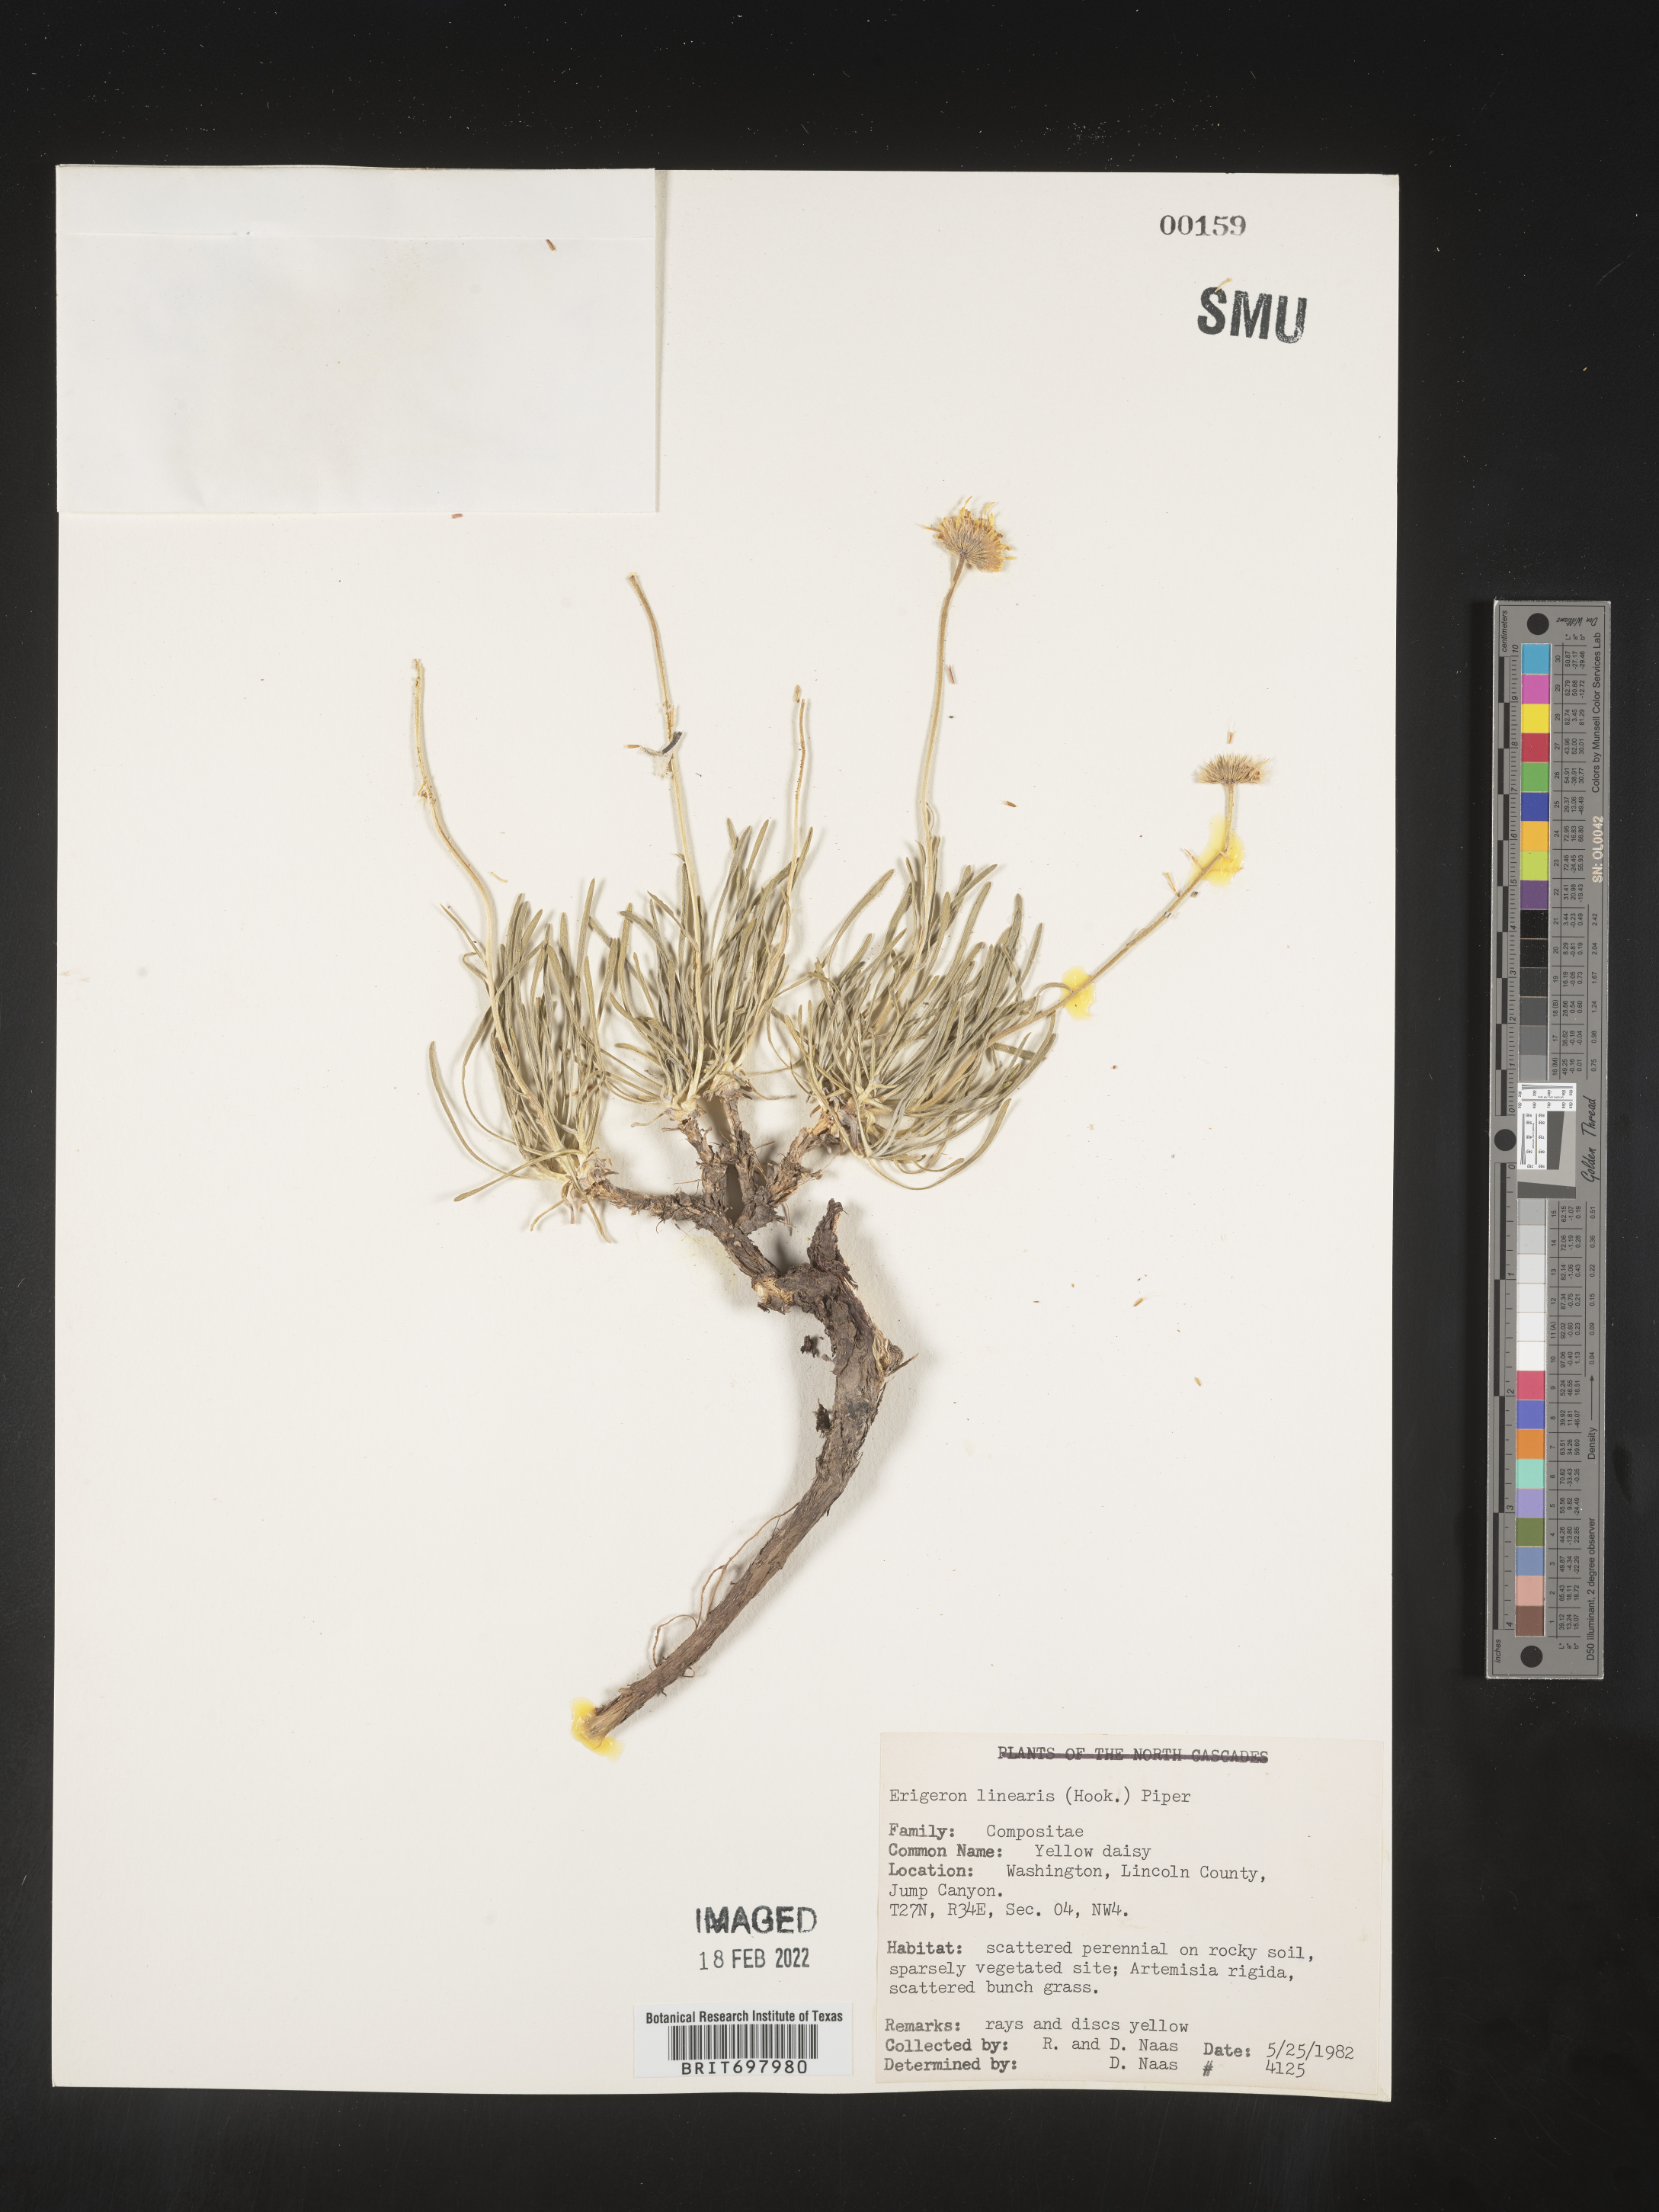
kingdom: Plantae
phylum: Tracheophyta
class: Magnoliopsida
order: Asterales
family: Asteraceae
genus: Erigeron
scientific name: Erigeron linearis
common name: Desert yellow fleabane
